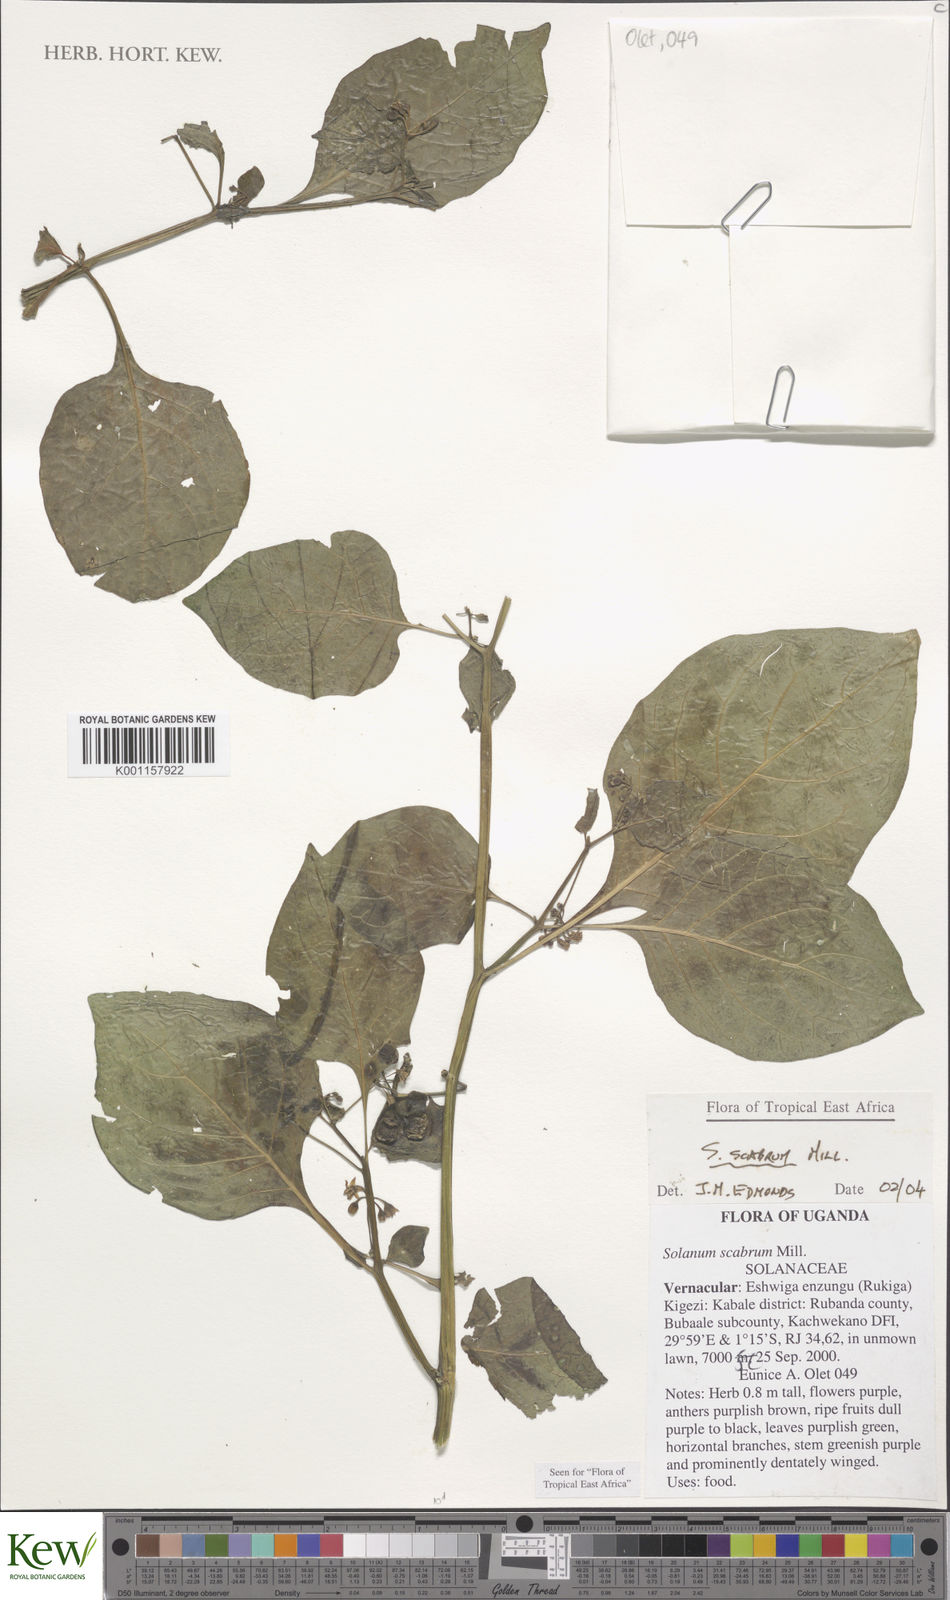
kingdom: Plantae
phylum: Tracheophyta
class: Magnoliopsida
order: Solanales
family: Solanaceae
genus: Solanum
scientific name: Solanum scabrum
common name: Garden-huckleberry
